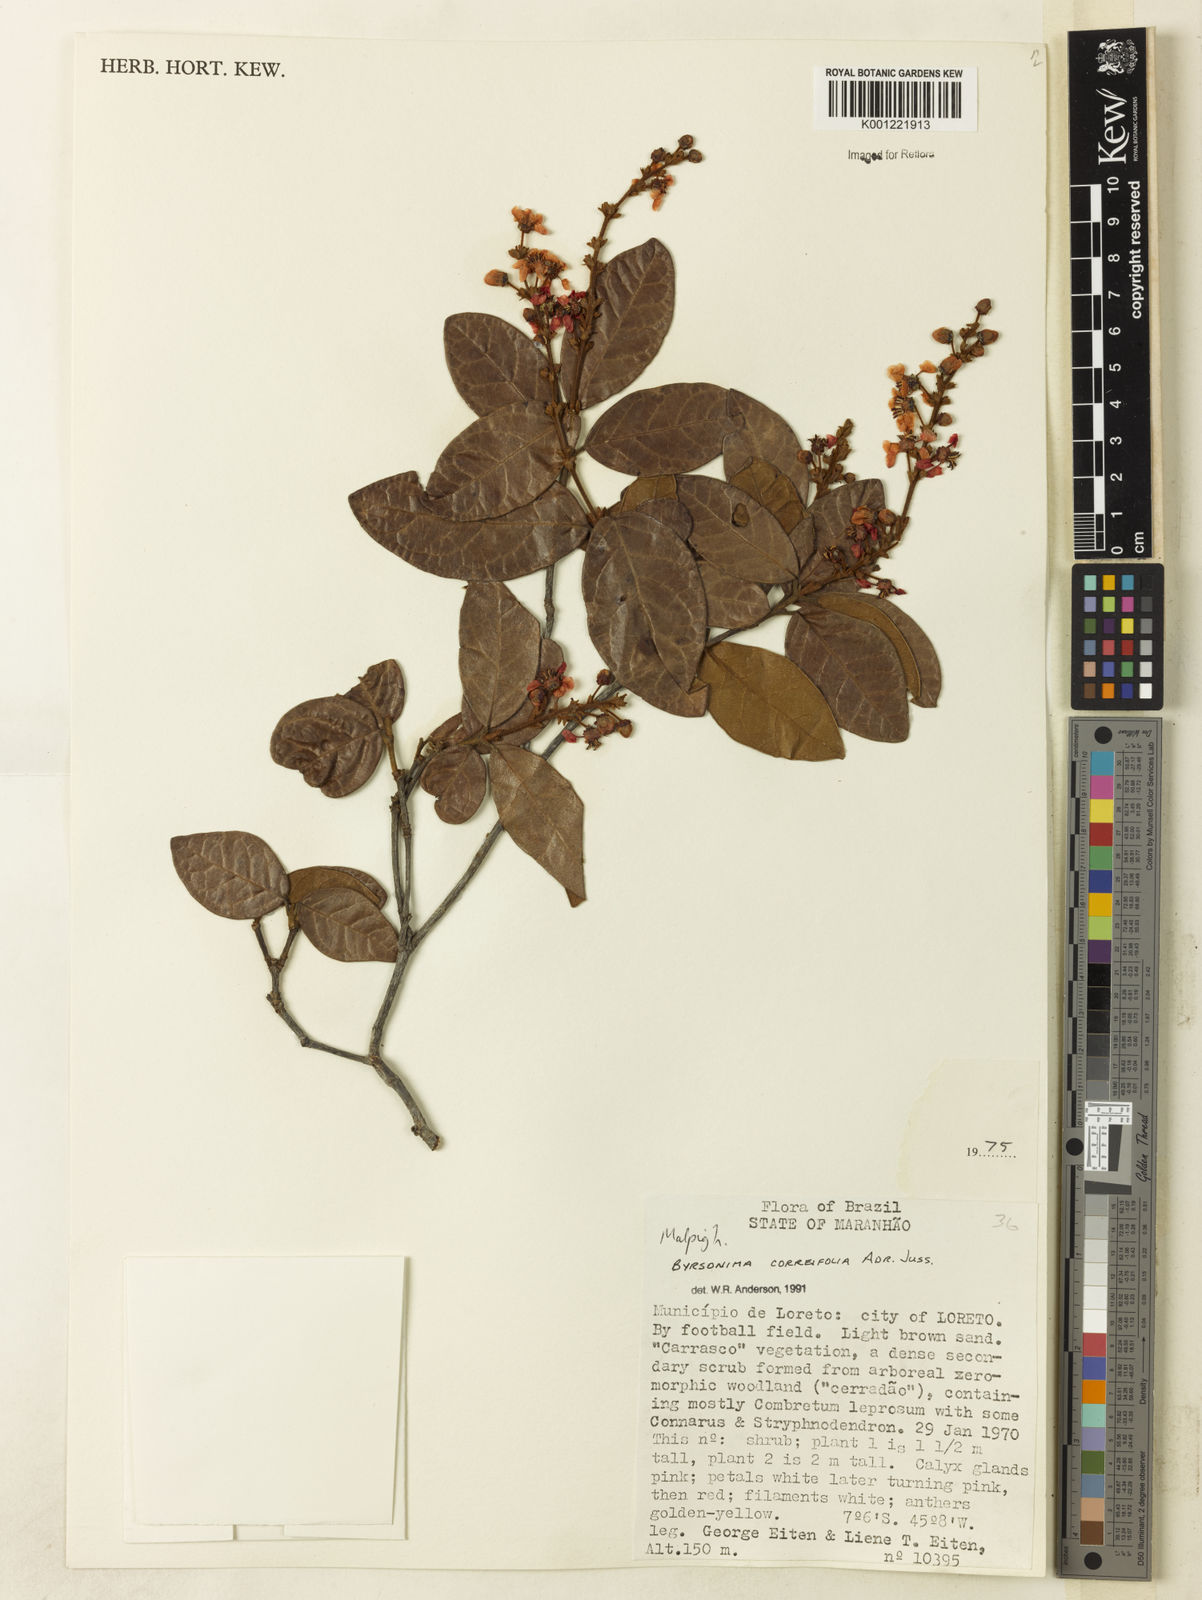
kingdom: Plantae
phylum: Tracheophyta
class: Magnoliopsida
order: Malpighiales
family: Malpighiaceae
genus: Byrsonima
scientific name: Byrsonima correifolia
